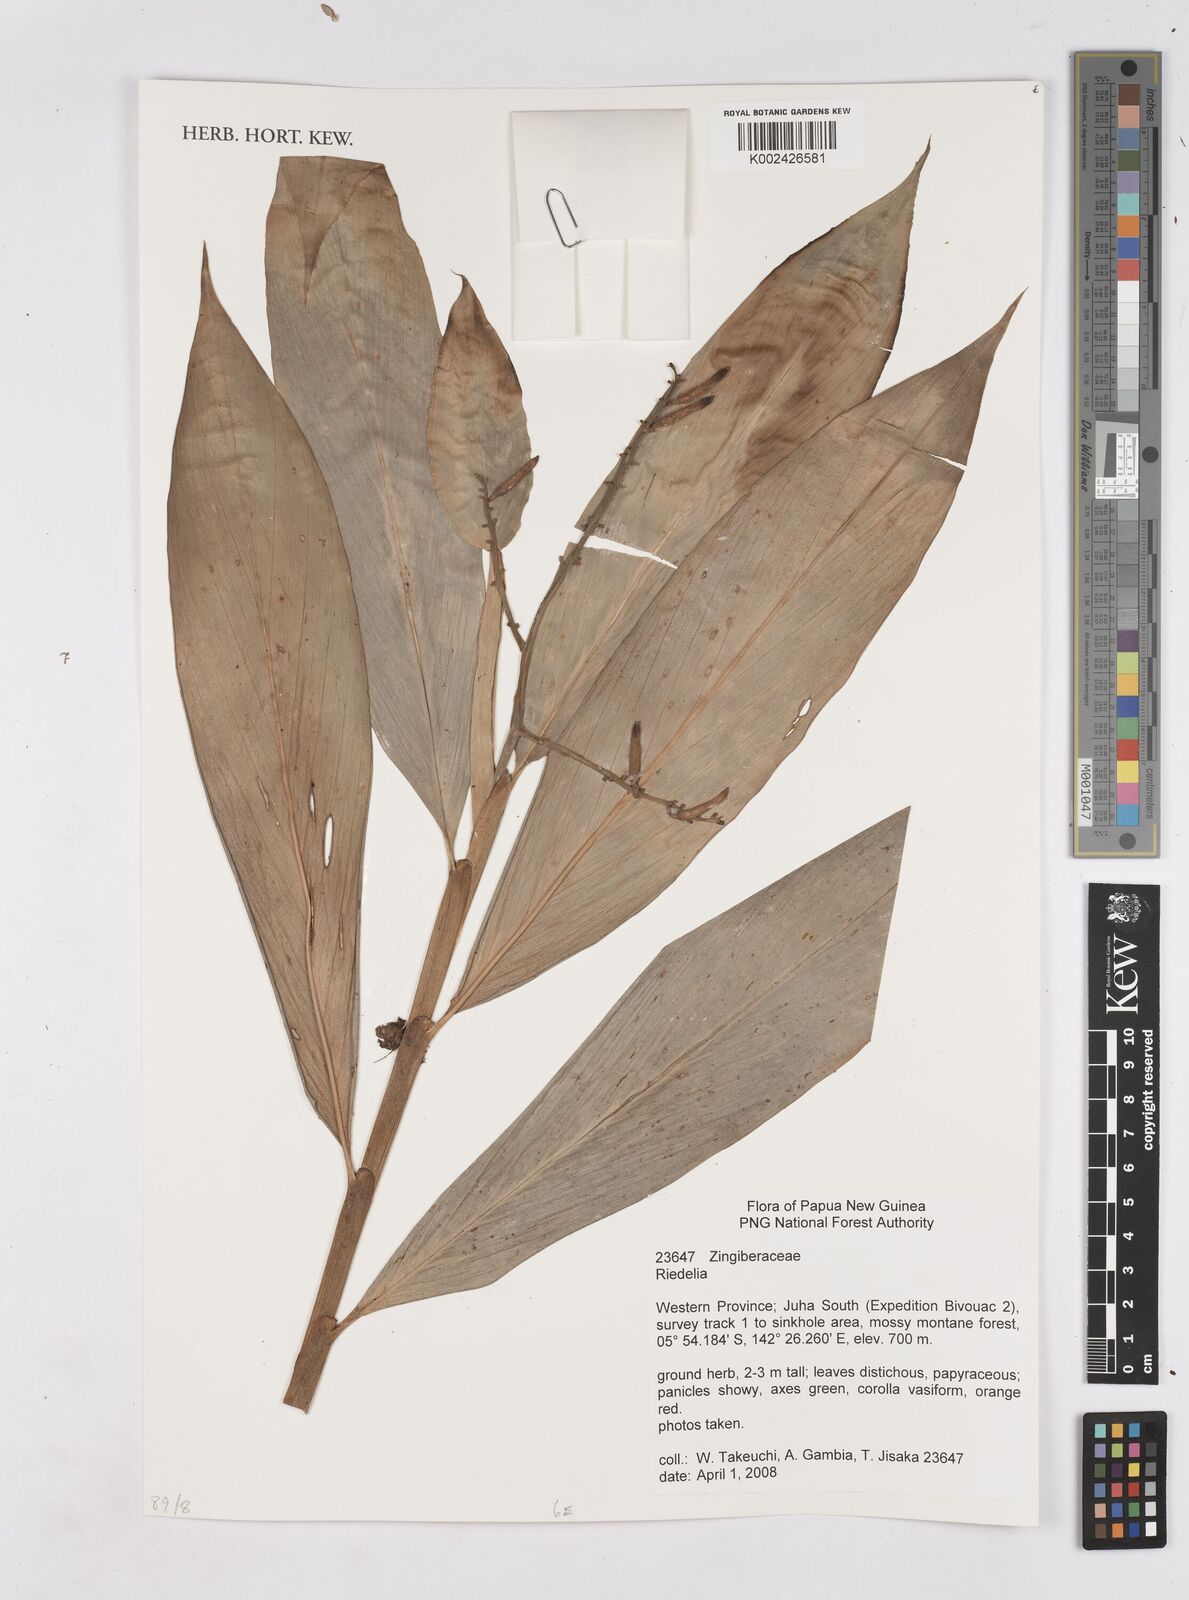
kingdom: Plantae
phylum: Tracheophyta
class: Liliopsida
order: Zingiberales
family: Zingiberaceae
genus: Riedelia
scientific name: Riedelia
